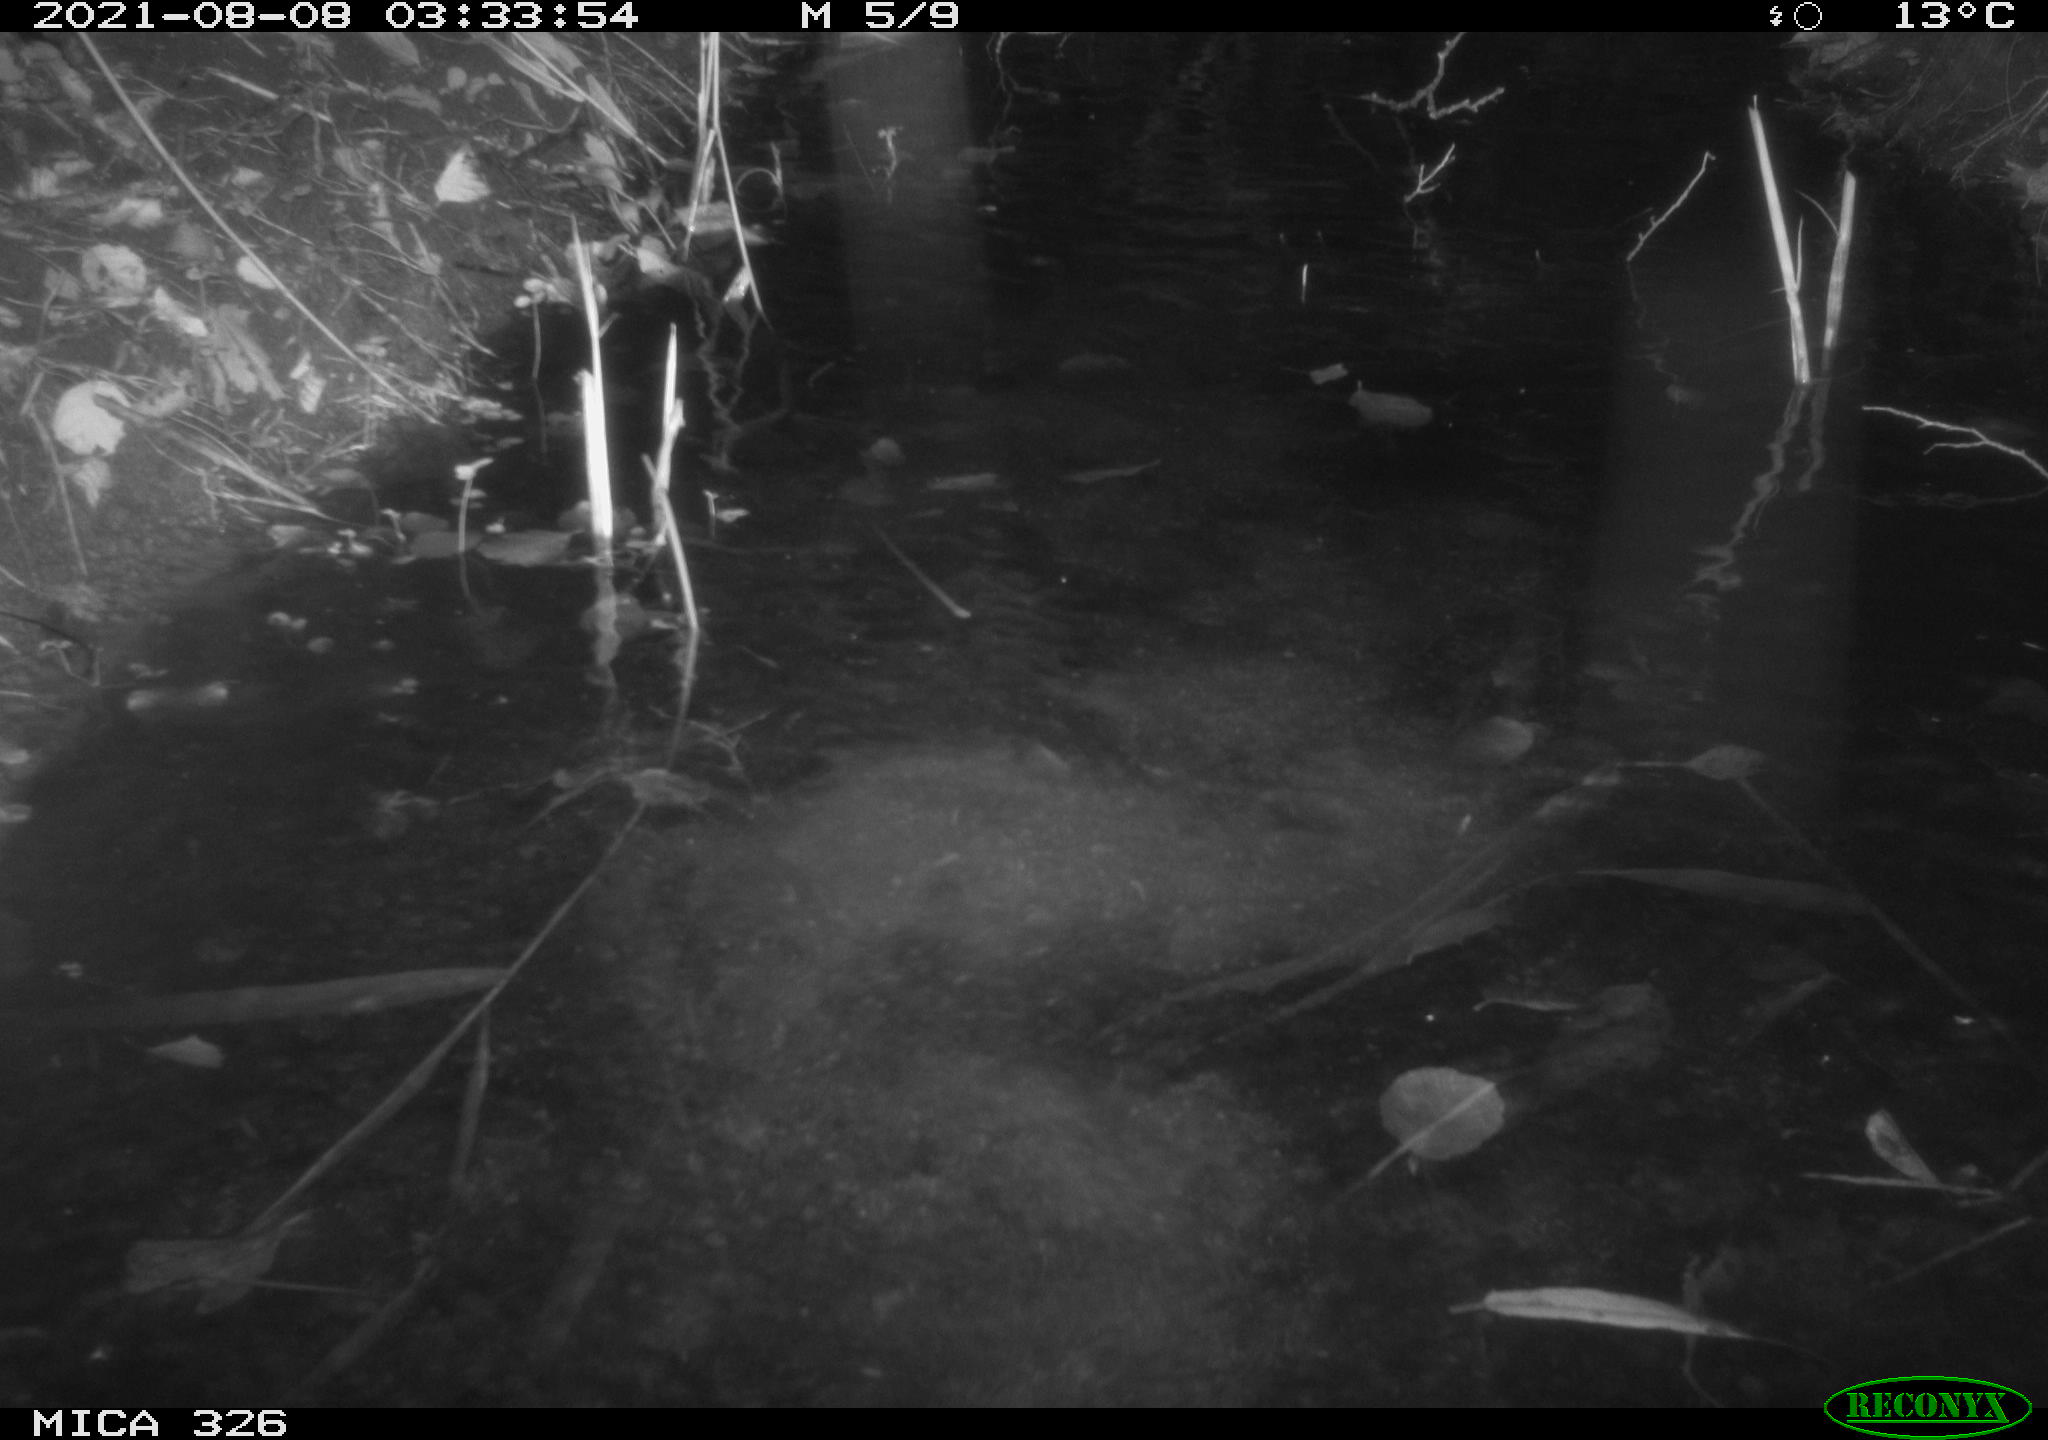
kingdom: Animalia
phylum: Chordata
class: Mammalia
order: Rodentia
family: Myocastoridae
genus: Myocastor
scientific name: Myocastor coypus
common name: Coypu
